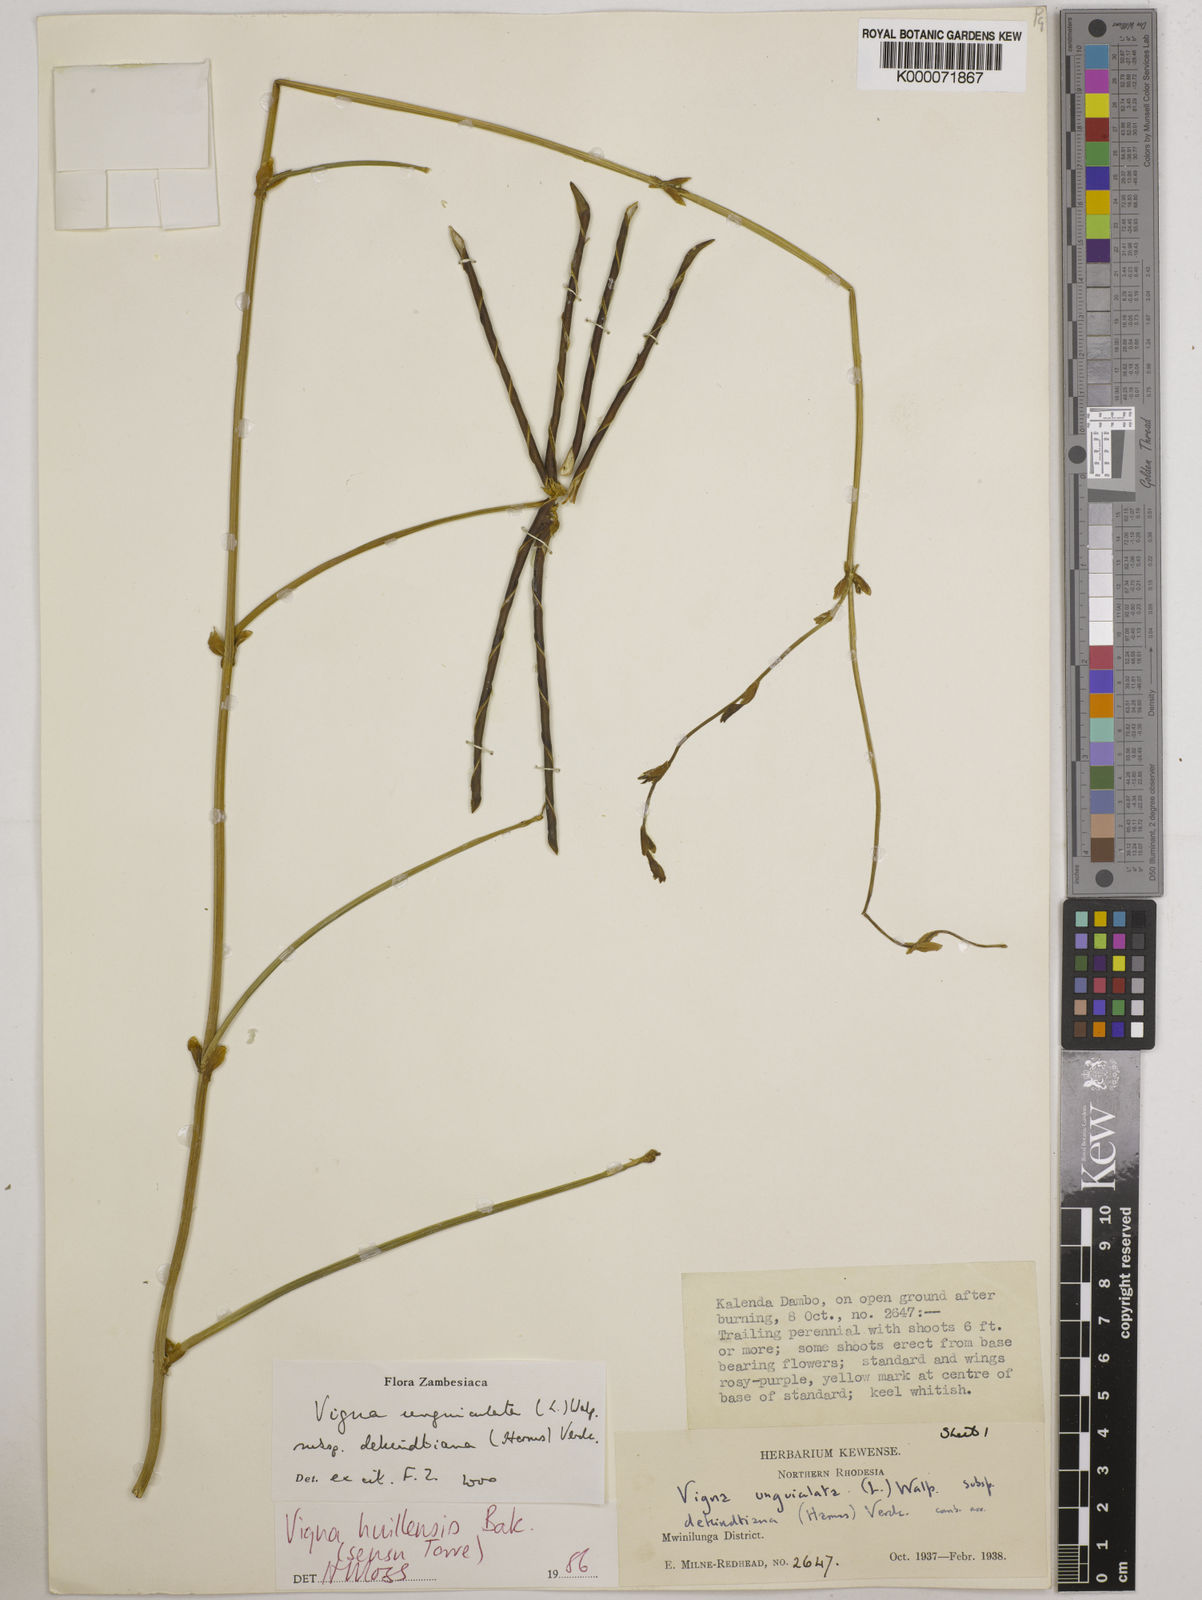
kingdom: Plantae
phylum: Tracheophyta
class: Magnoliopsida
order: Fabales
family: Fabaceae
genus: Vigna
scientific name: Vigna unguiculata
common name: Cowpea
